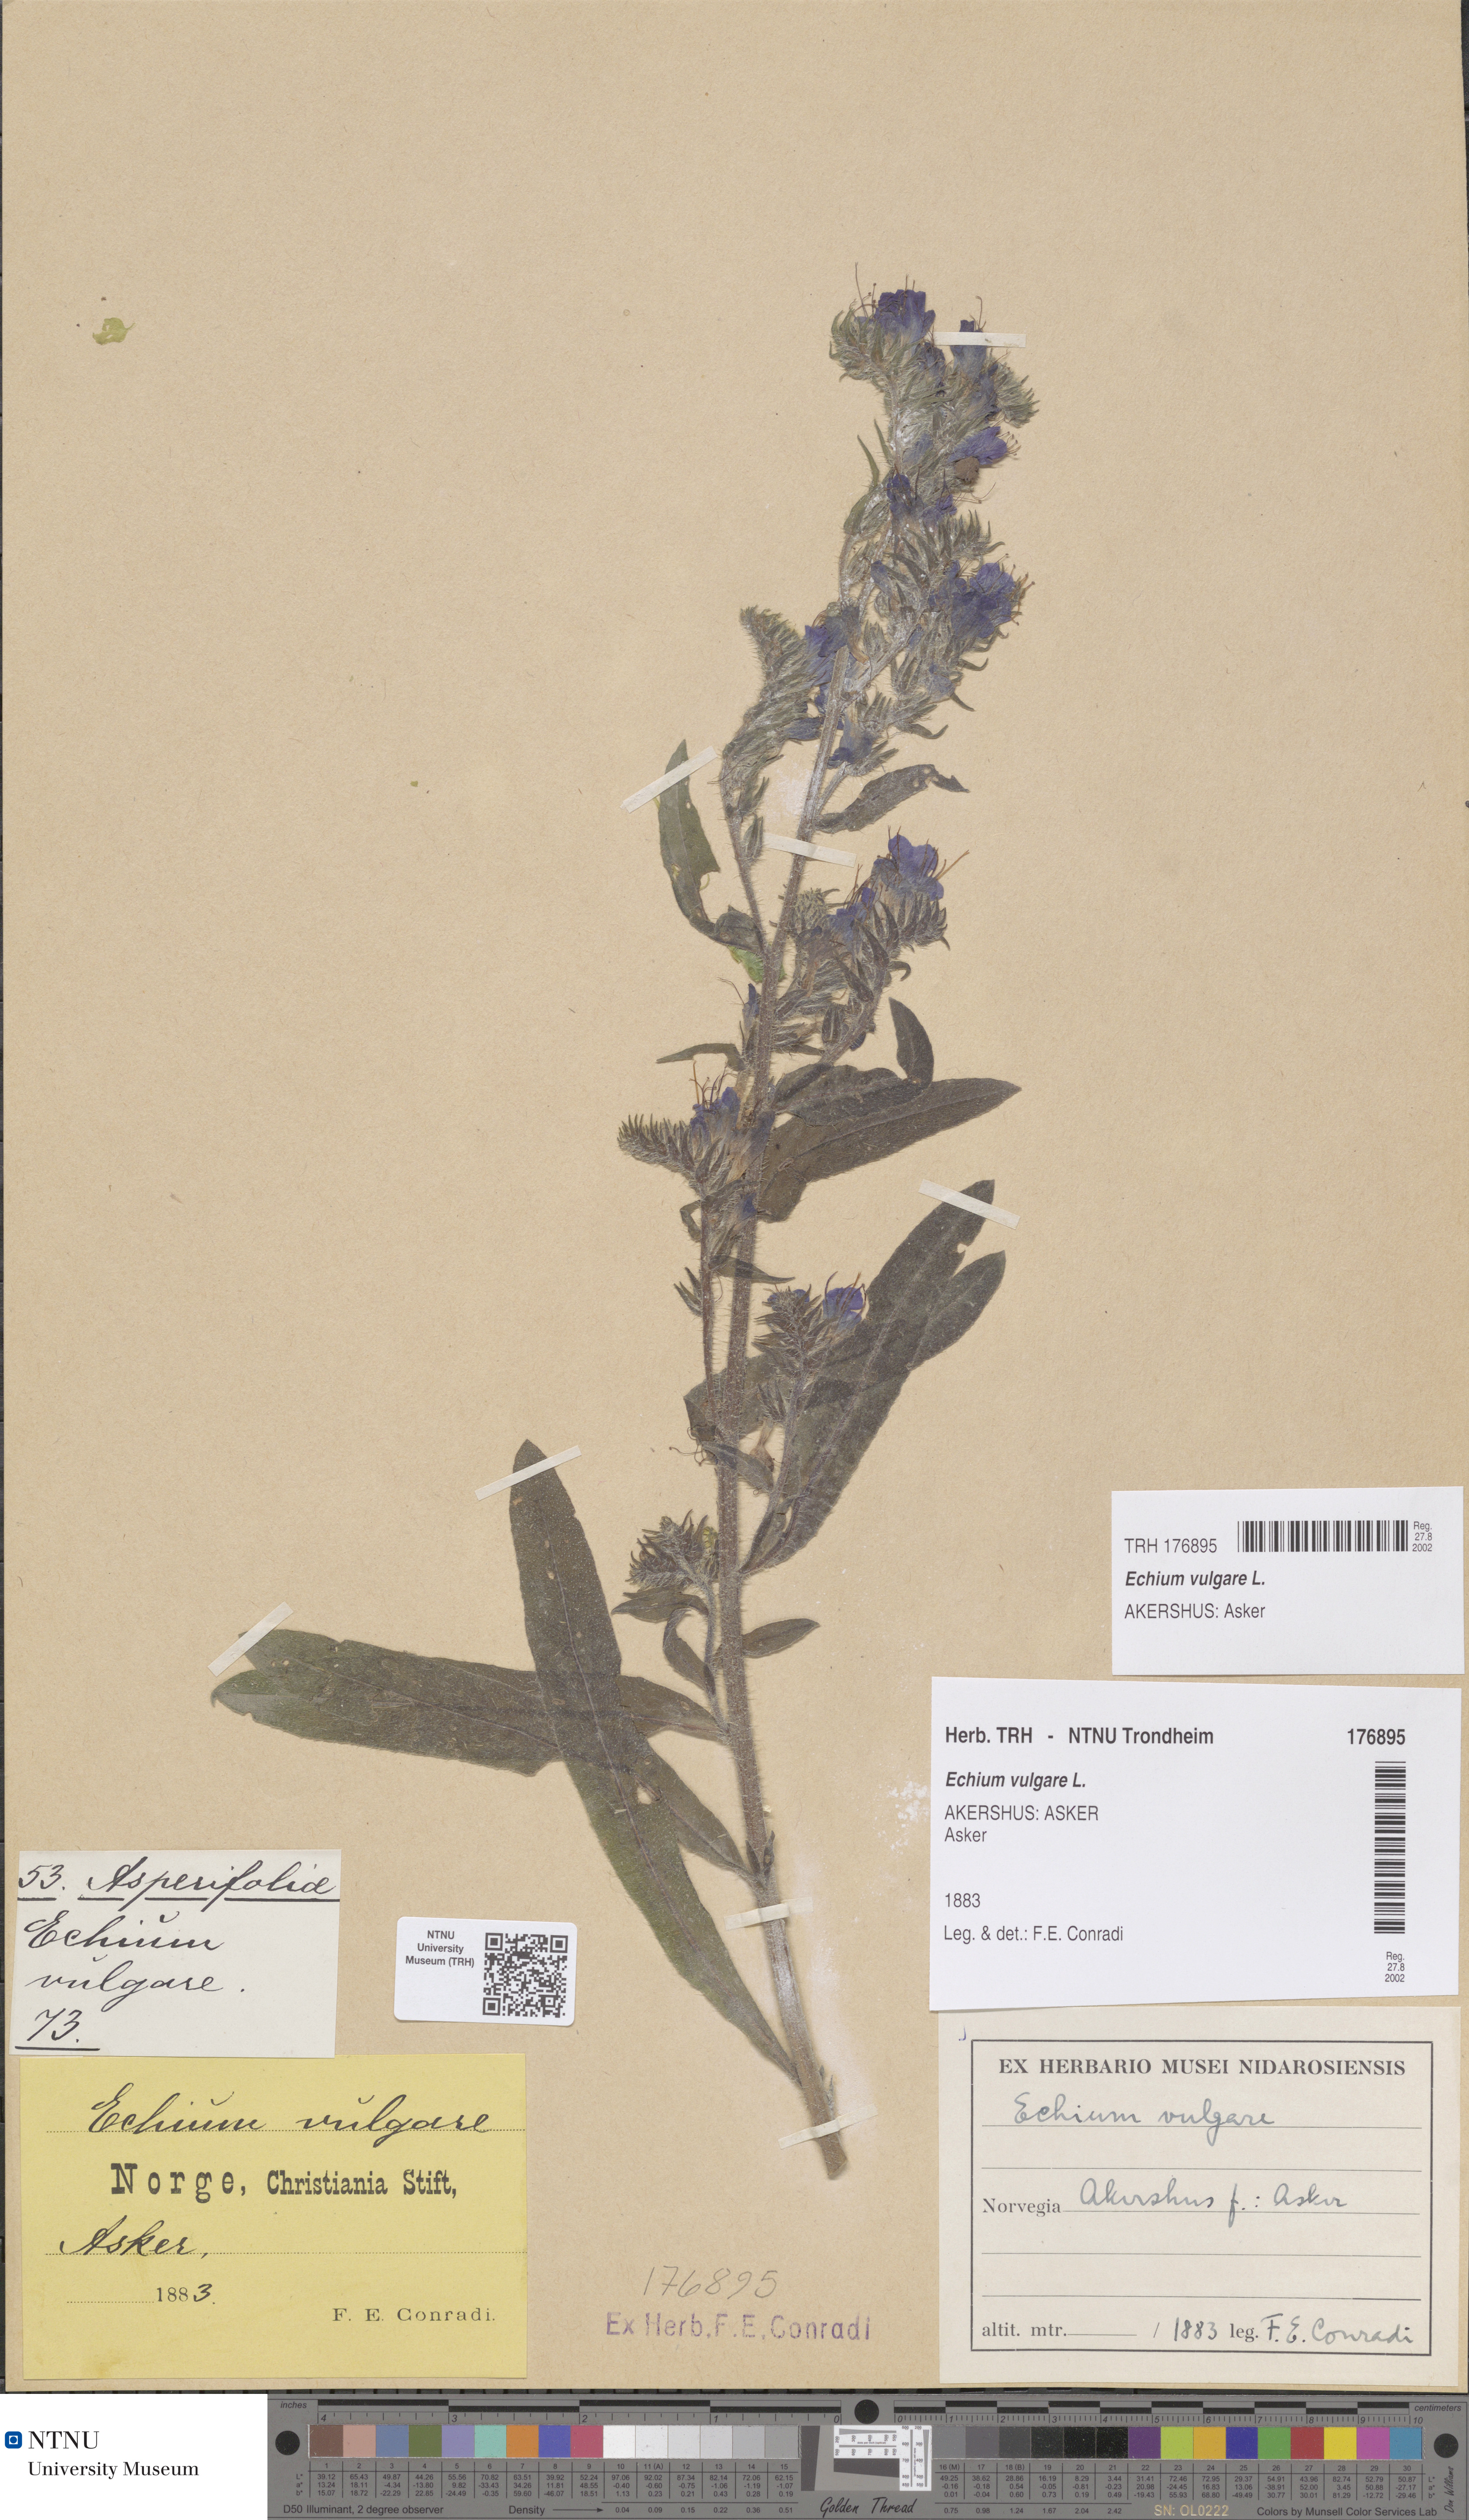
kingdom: Plantae
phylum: Tracheophyta
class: Magnoliopsida
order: Boraginales
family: Boraginaceae
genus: Echium
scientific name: Echium vulgare
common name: Common viper's bugloss
